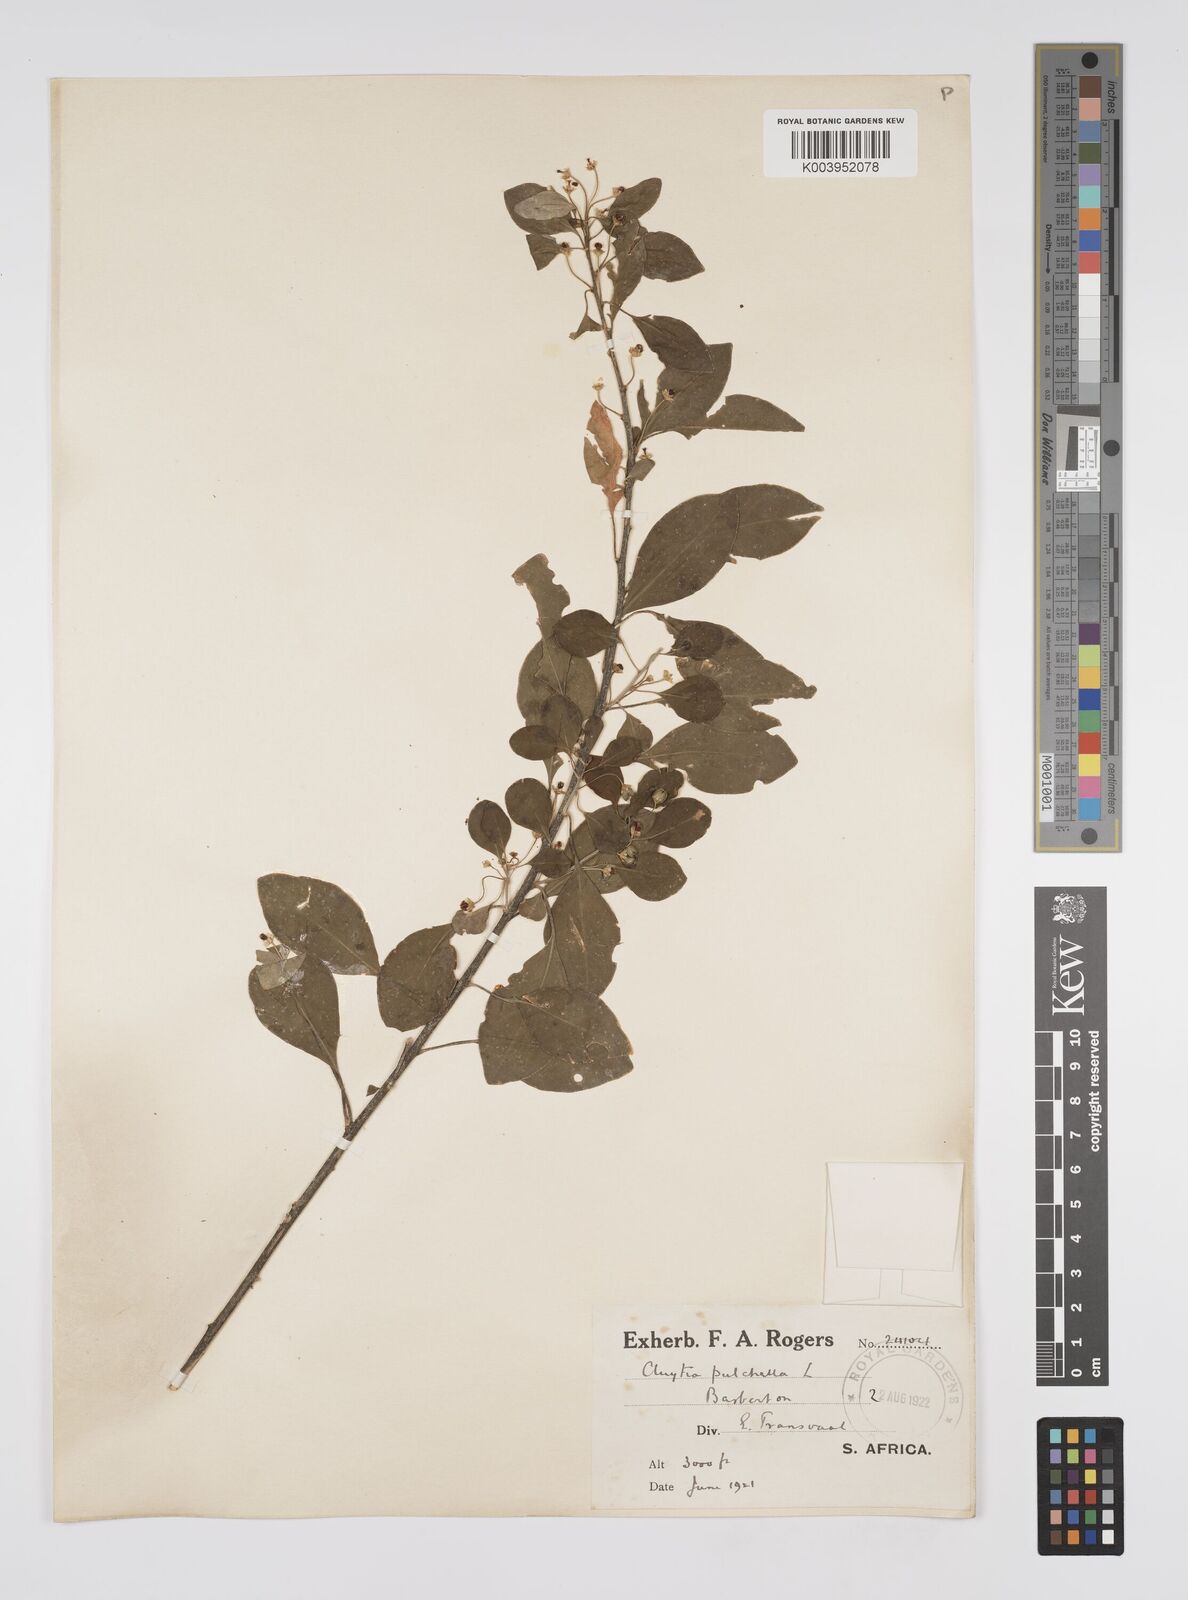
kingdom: Plantae
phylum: Tracheophyta
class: Magnoliopsida
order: Malpighiales
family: Peraceae
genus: Clutia
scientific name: Clutia
